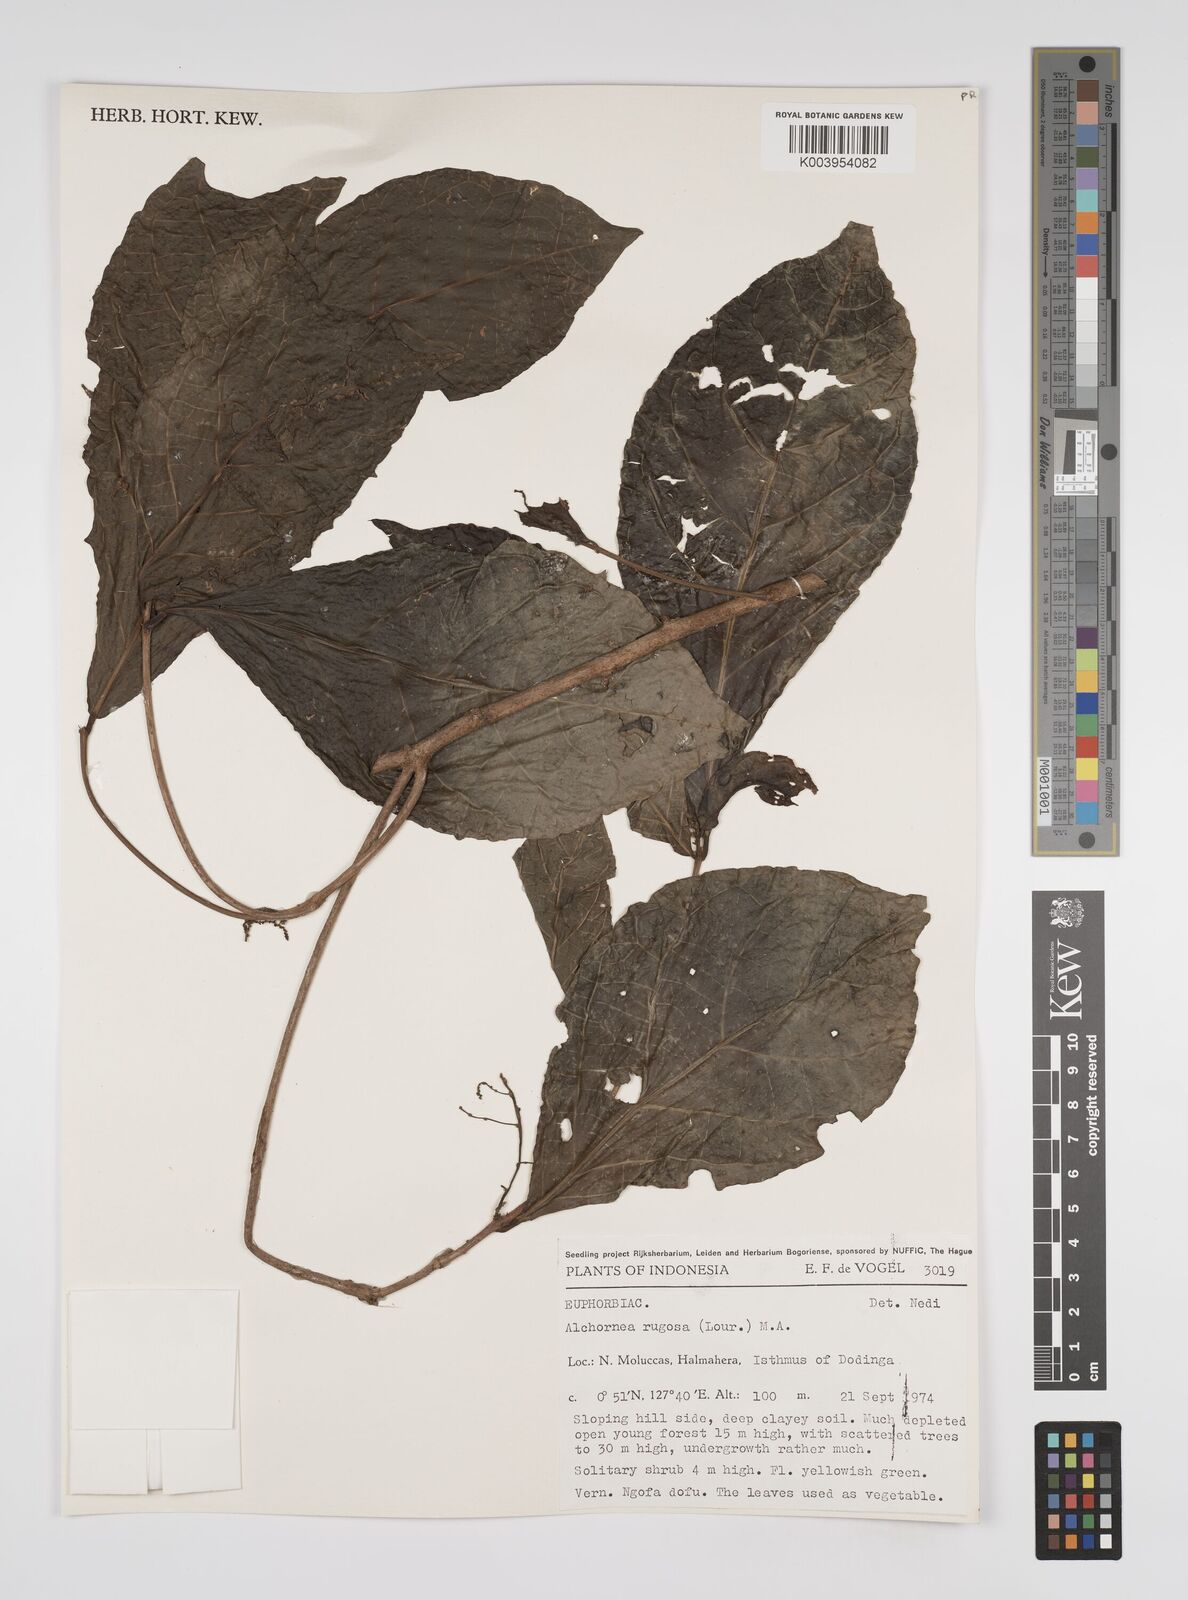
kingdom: Plantae
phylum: Tracheophyta
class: Magnoliopsida
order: Malpighiales
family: Euphorbiaceae
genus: Alchornea
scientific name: Alchornea rugosa
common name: Alchorntree
